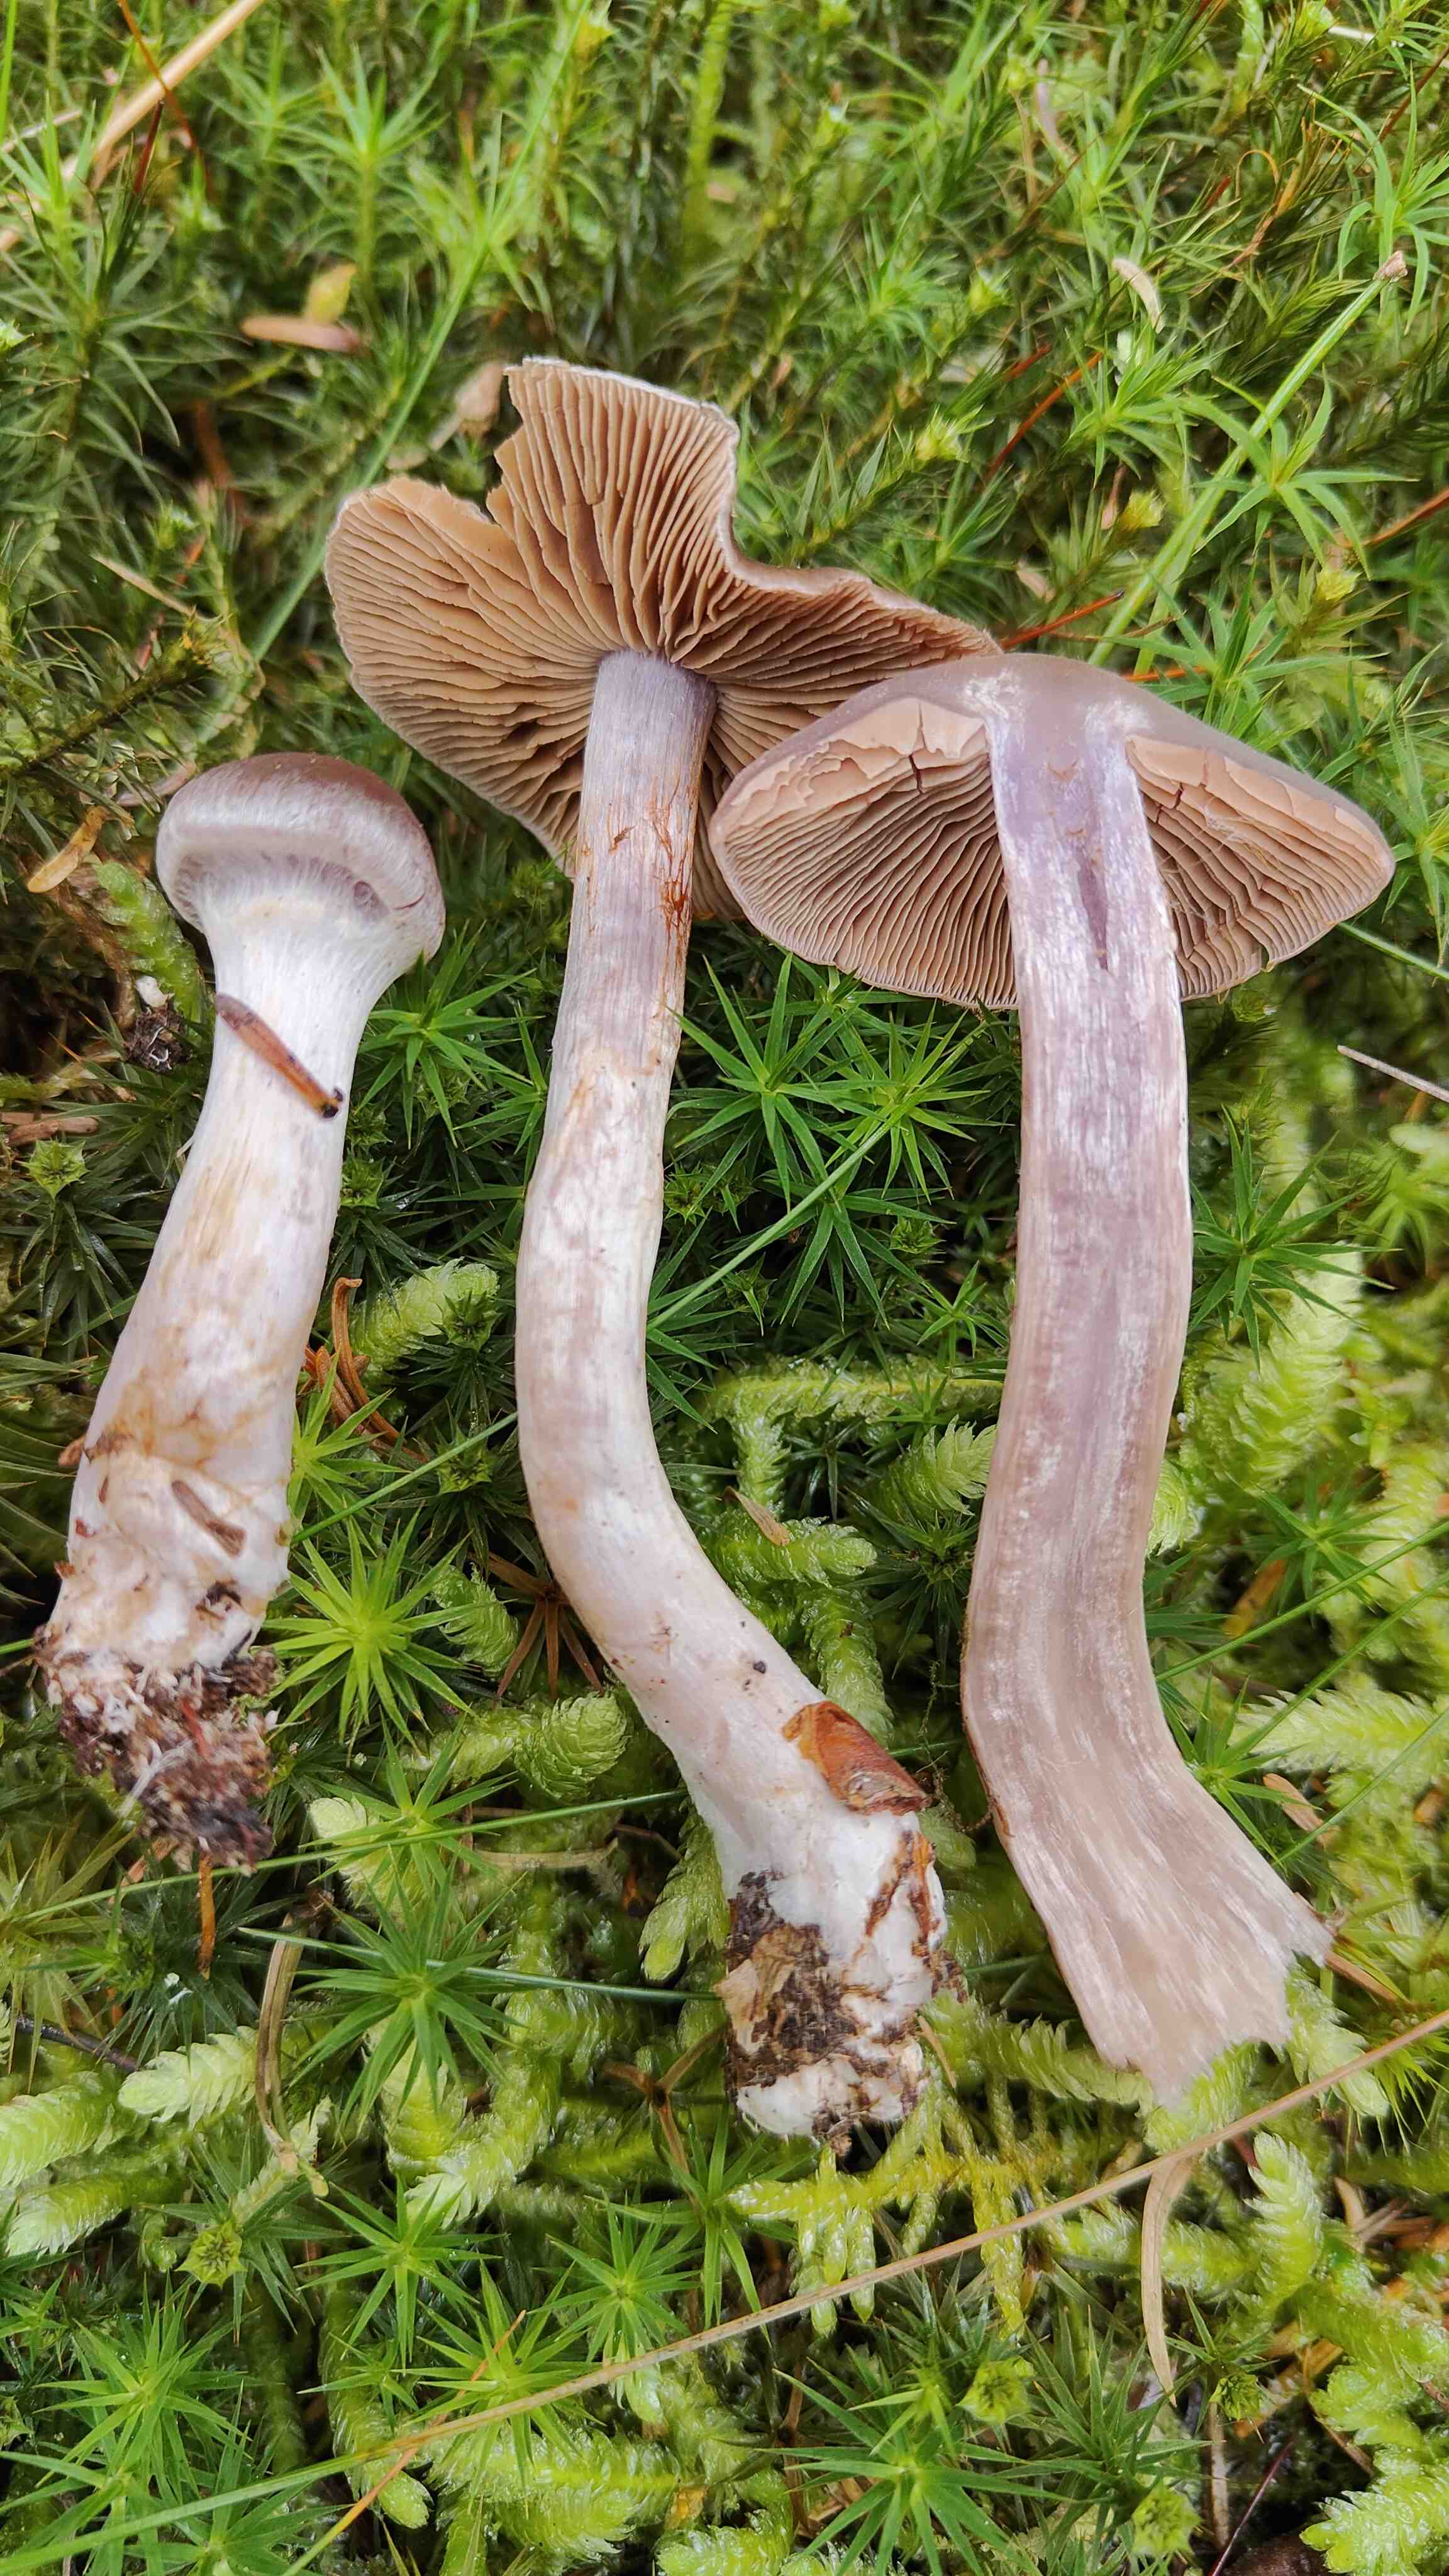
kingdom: Fungi
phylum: Basidiomycota
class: Agaricomycetes
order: Agaricales
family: Cortinariaceae
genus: Cortinarius
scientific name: Cortinarius kauffmanianus
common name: plantage-slørhat
